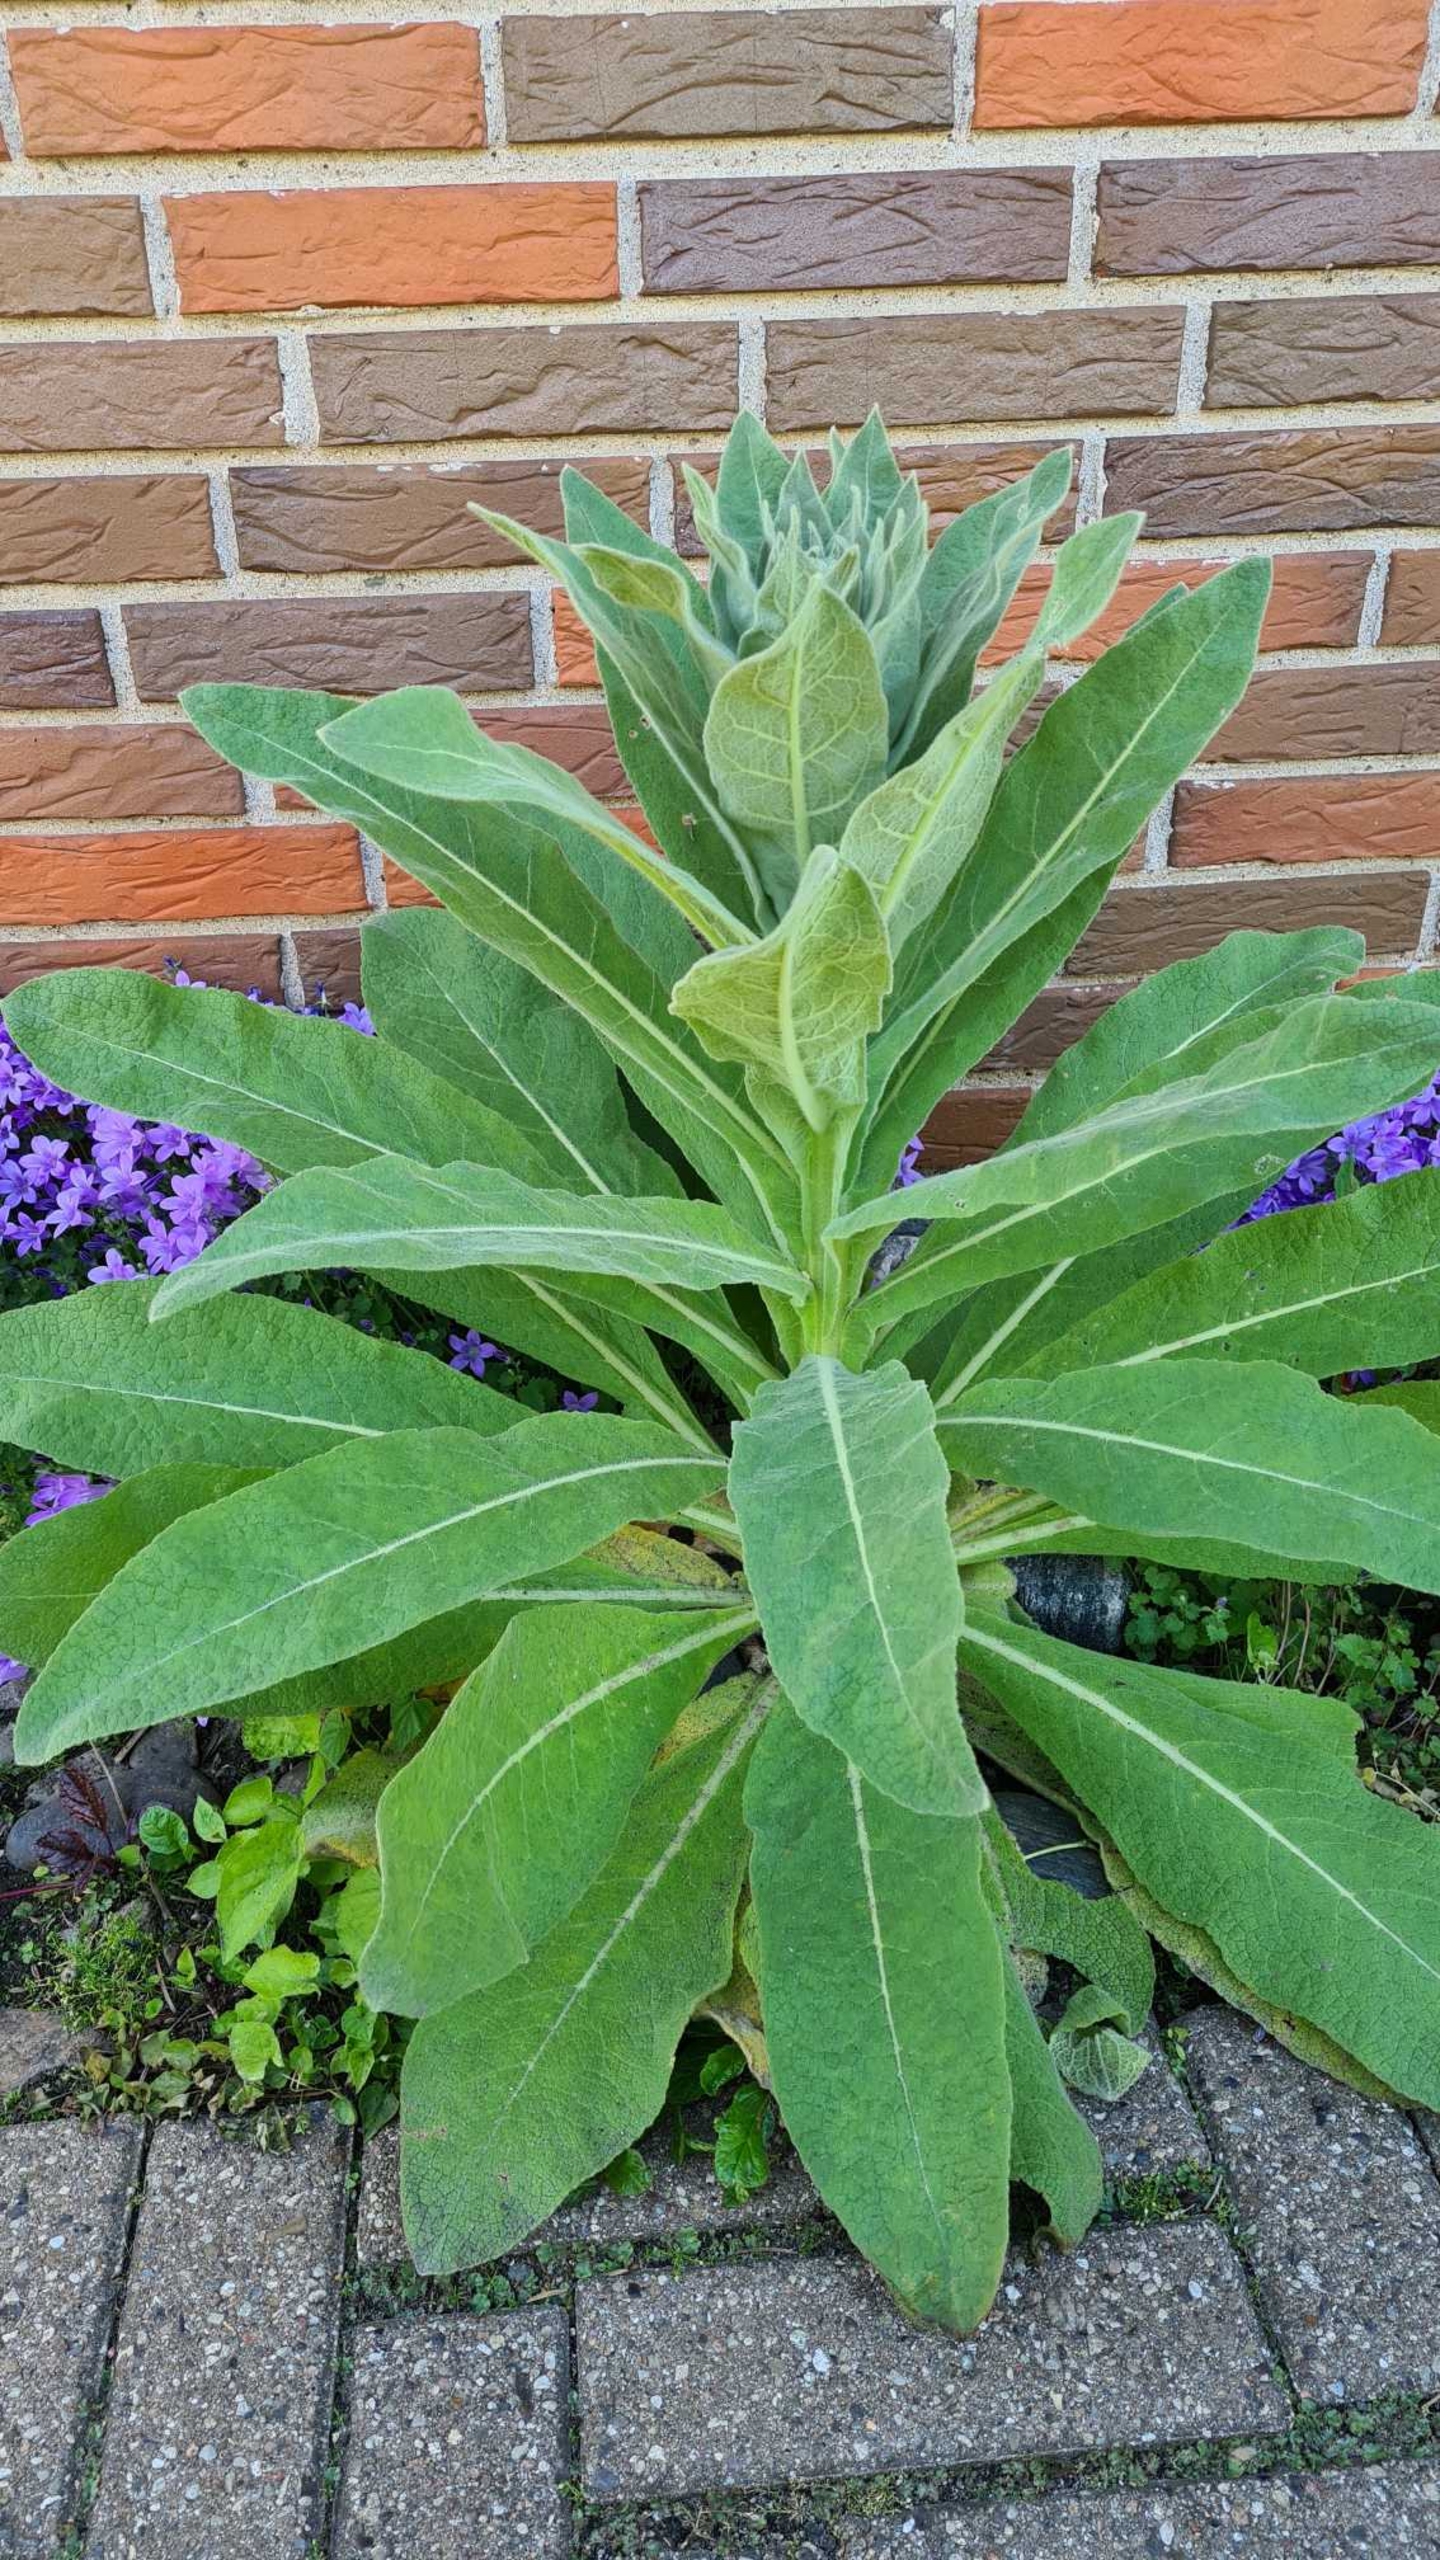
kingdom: Plantae
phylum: Tracheophyta
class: Magnoliopsida
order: Lamiales
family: Scrophulariaceae
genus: Verbascum
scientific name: Verbascum speciosum
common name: Kandelaber-kongelys
